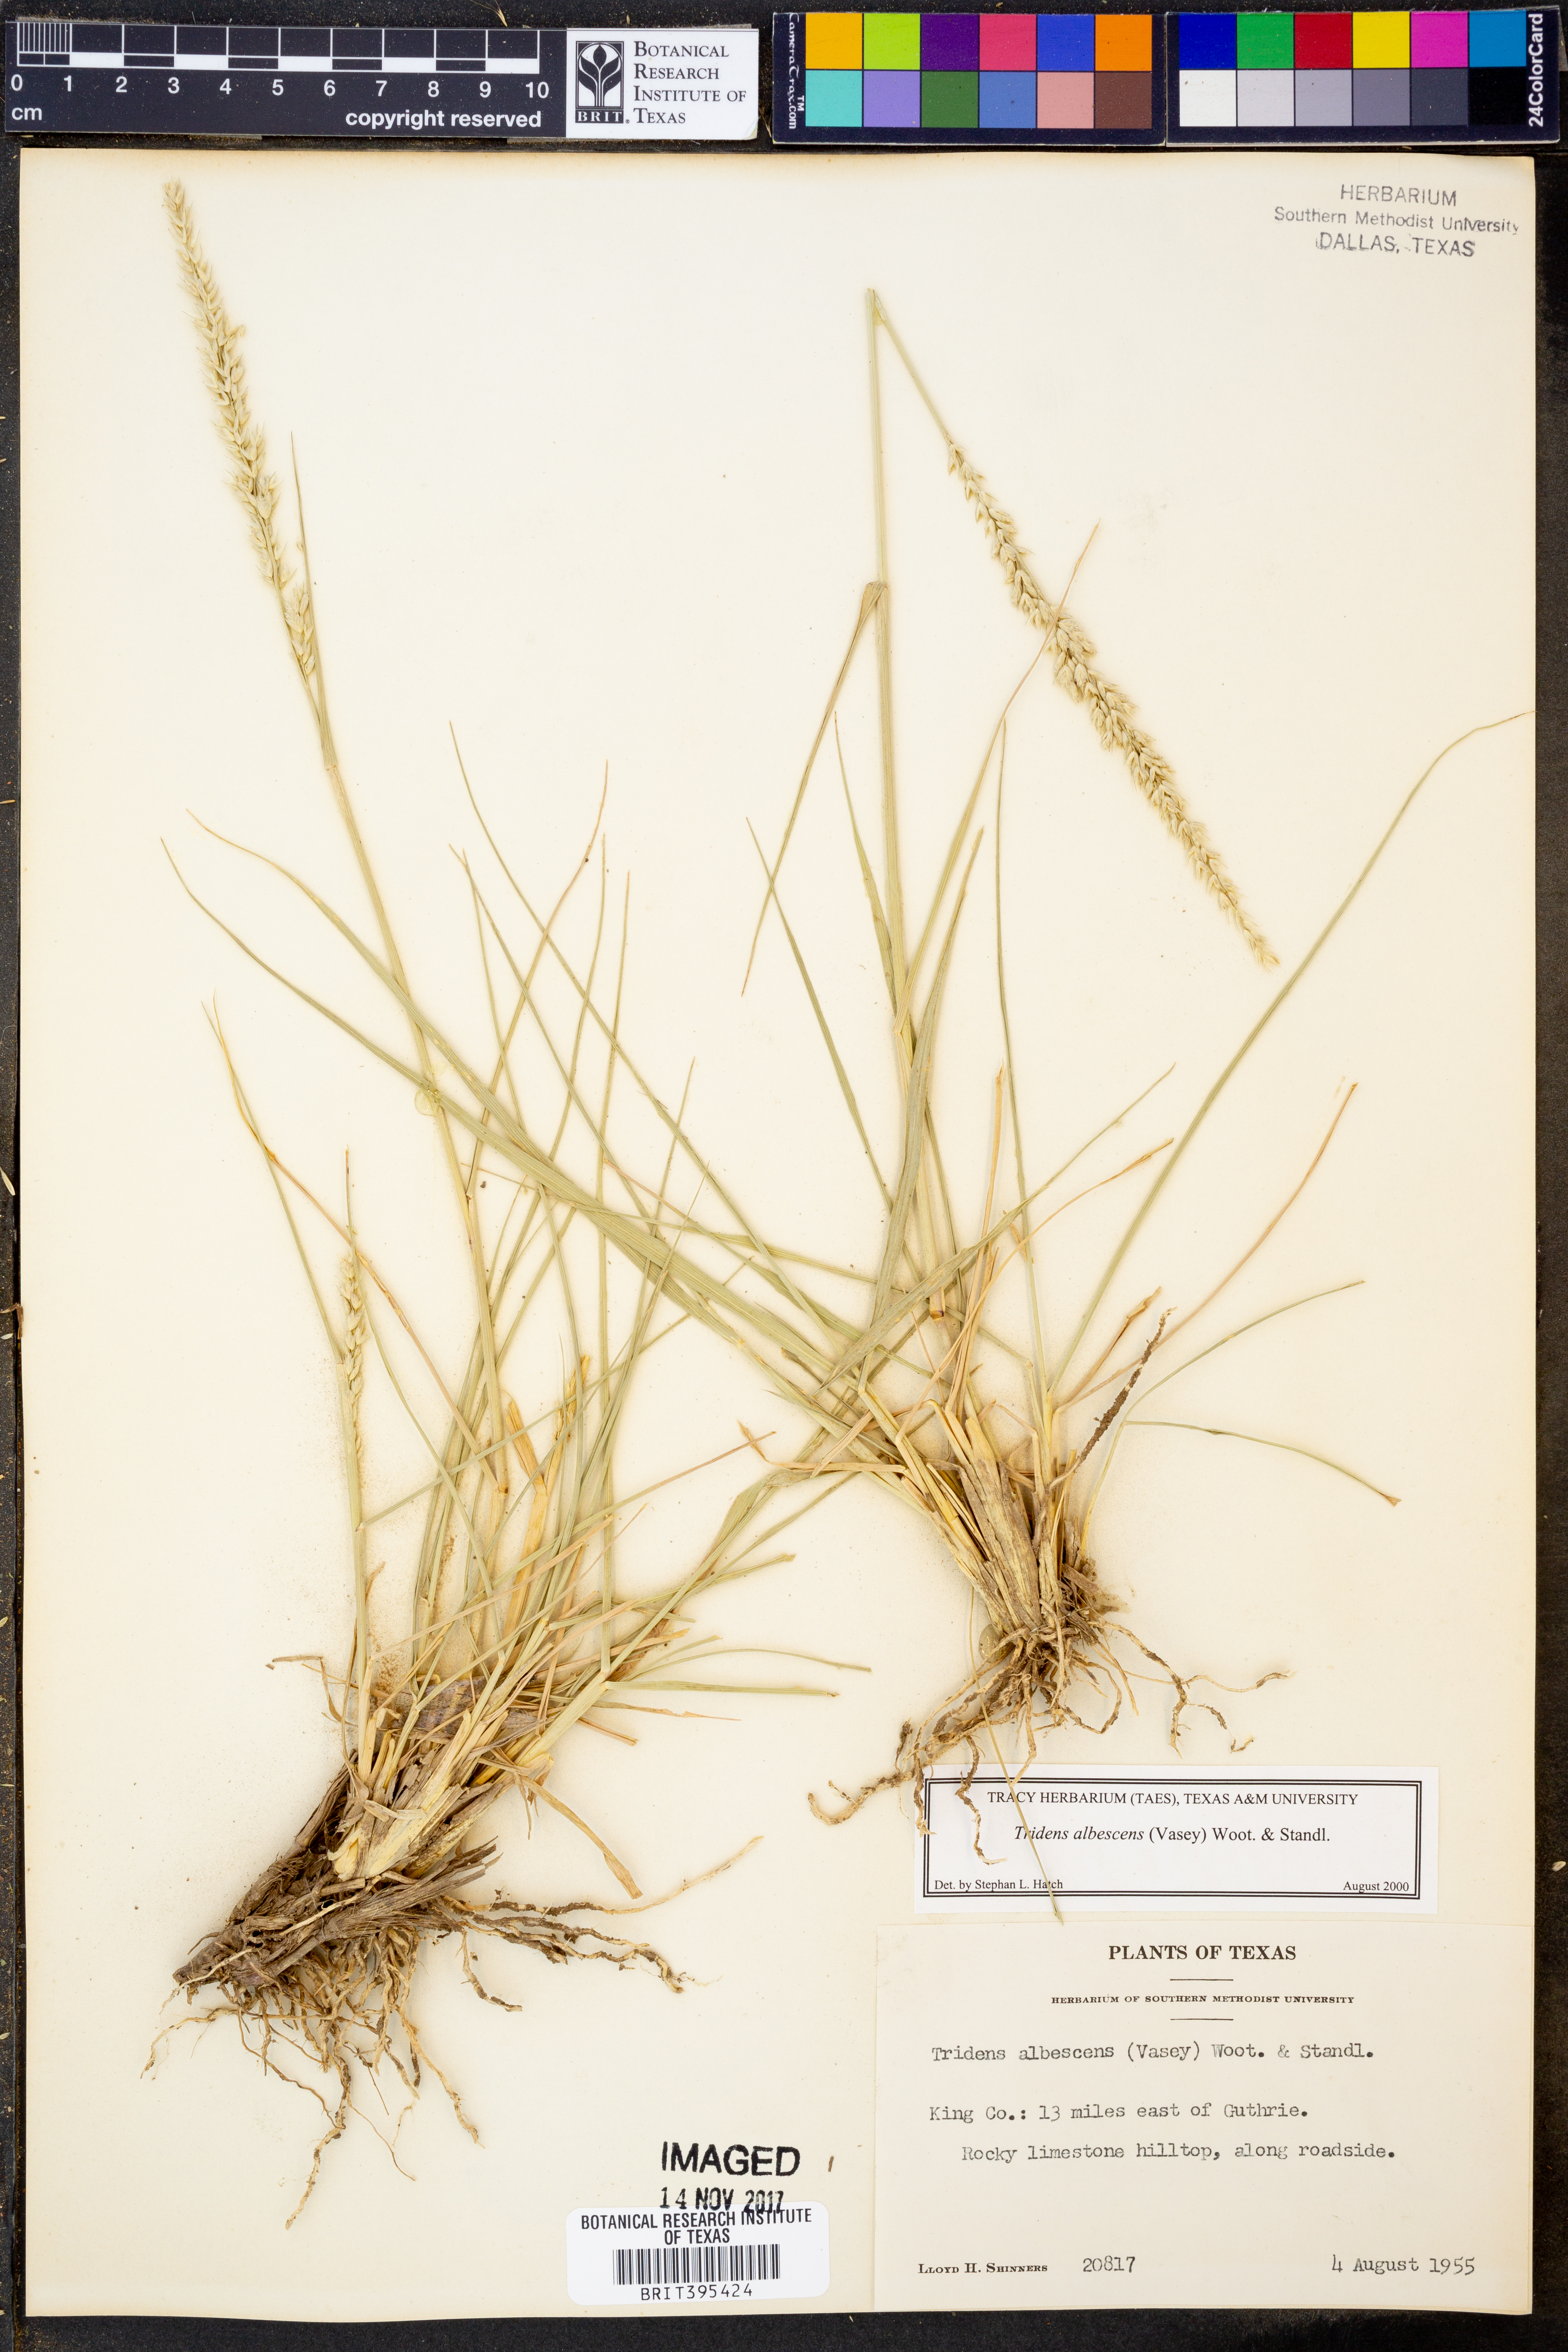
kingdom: Plantae
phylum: Tracheophyta
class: Liliopsida
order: Poales
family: Poaceae
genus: Tridens
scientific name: Tridens albescens
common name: White tridens
